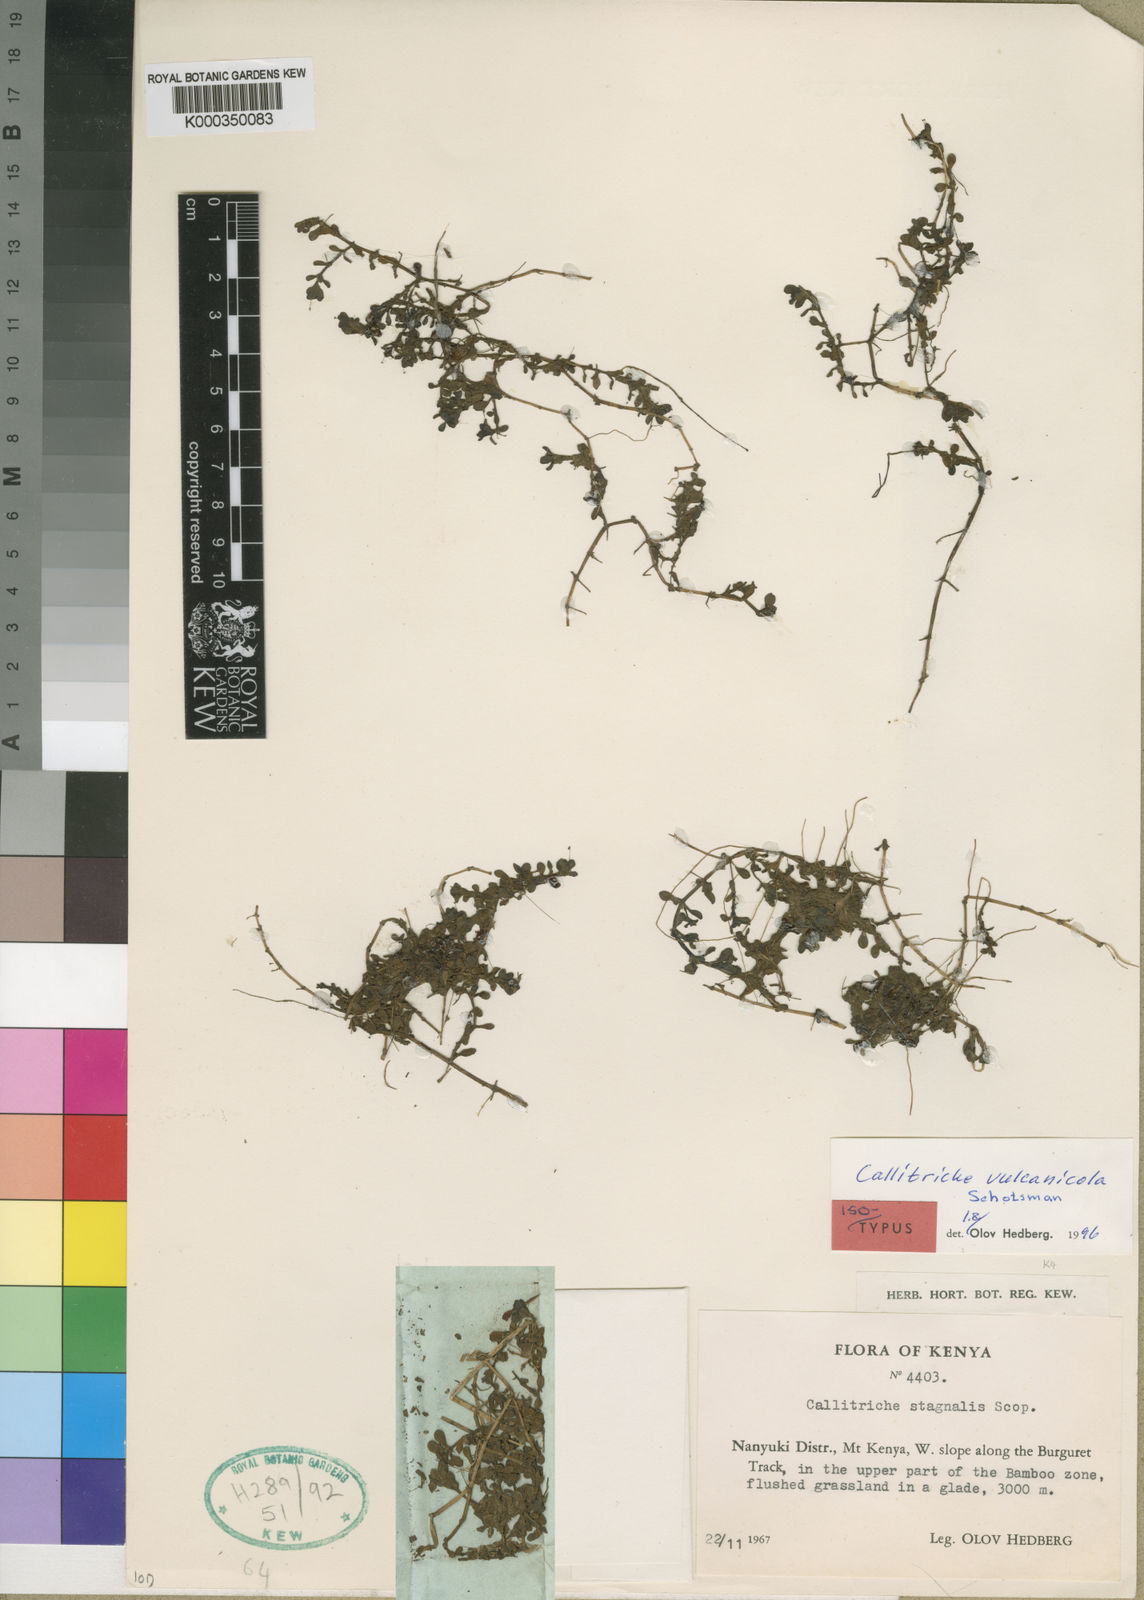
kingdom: Plantae
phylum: Tracheophyta
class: Magnoliopsida
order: Lamiales
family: Plantaginaceae
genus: Callitriche
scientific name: Callitriche vulcanicola
